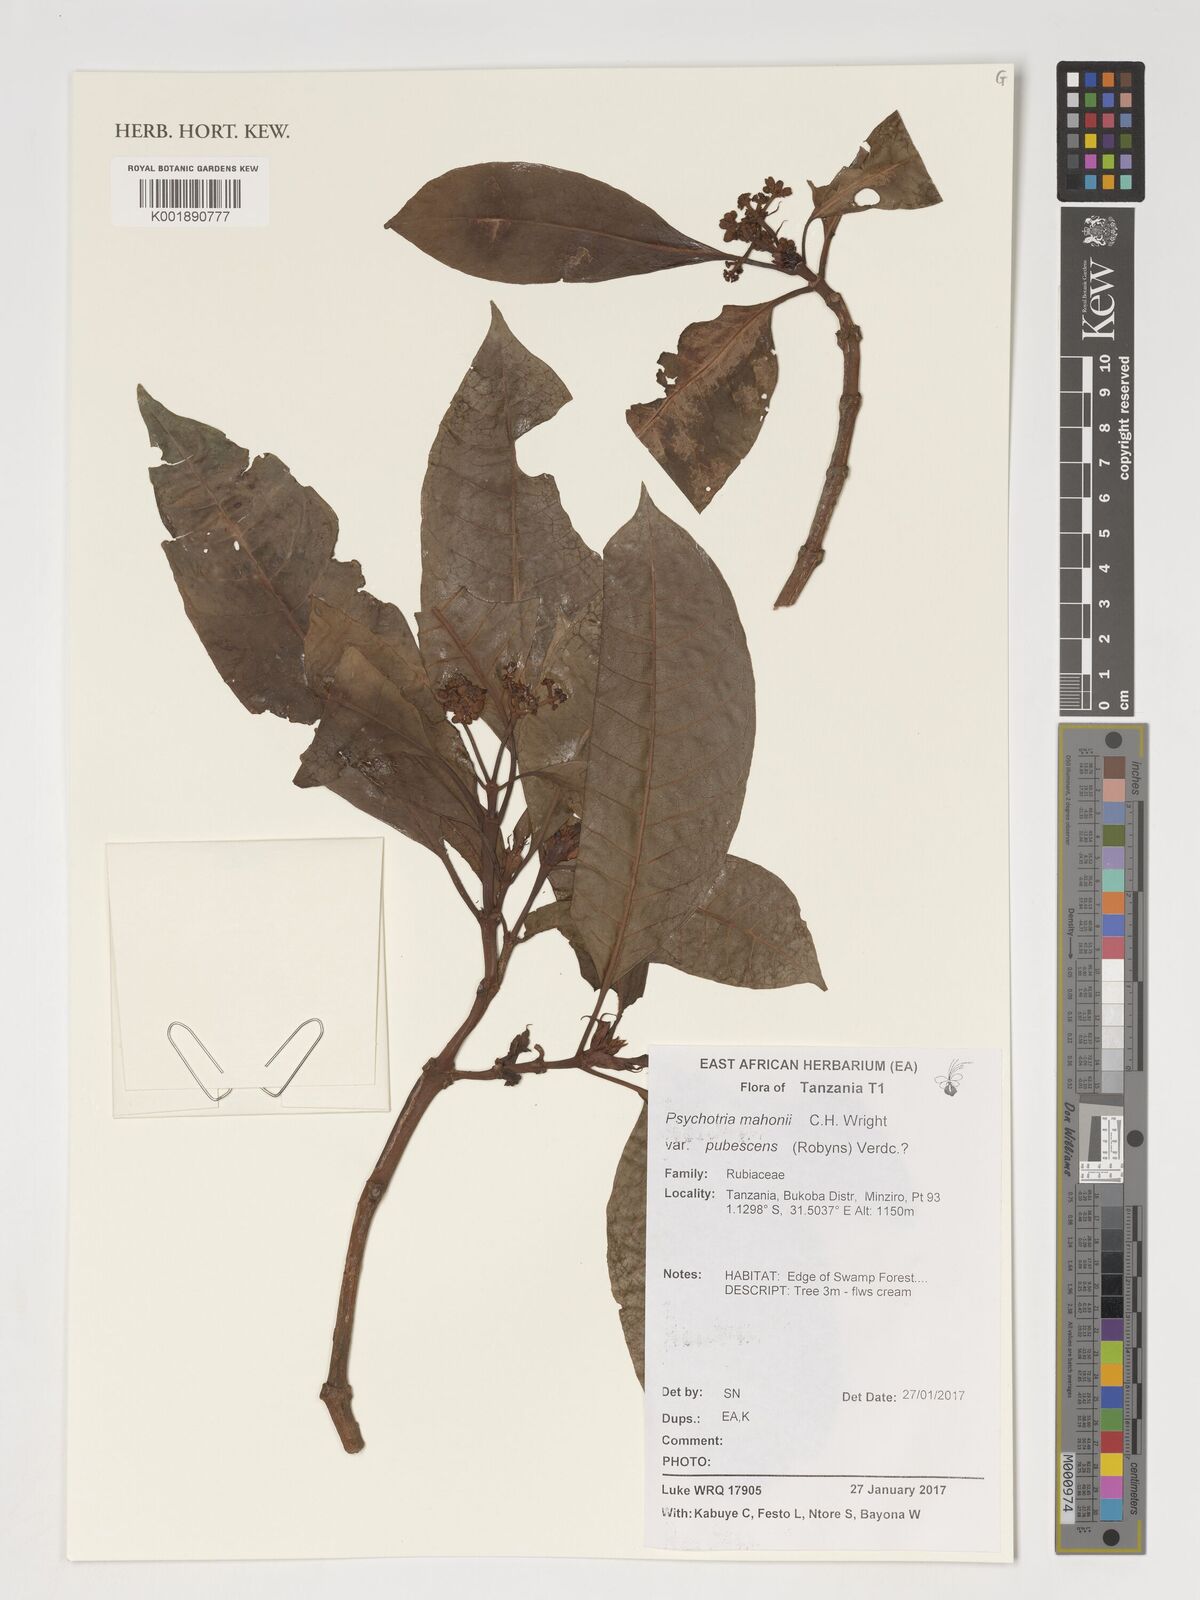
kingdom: Plantae
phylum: Tracheophyta
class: Magnoliopsida
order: Gentianales
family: Rubiaceae
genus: Psychotria
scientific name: Psychotria mahonii
